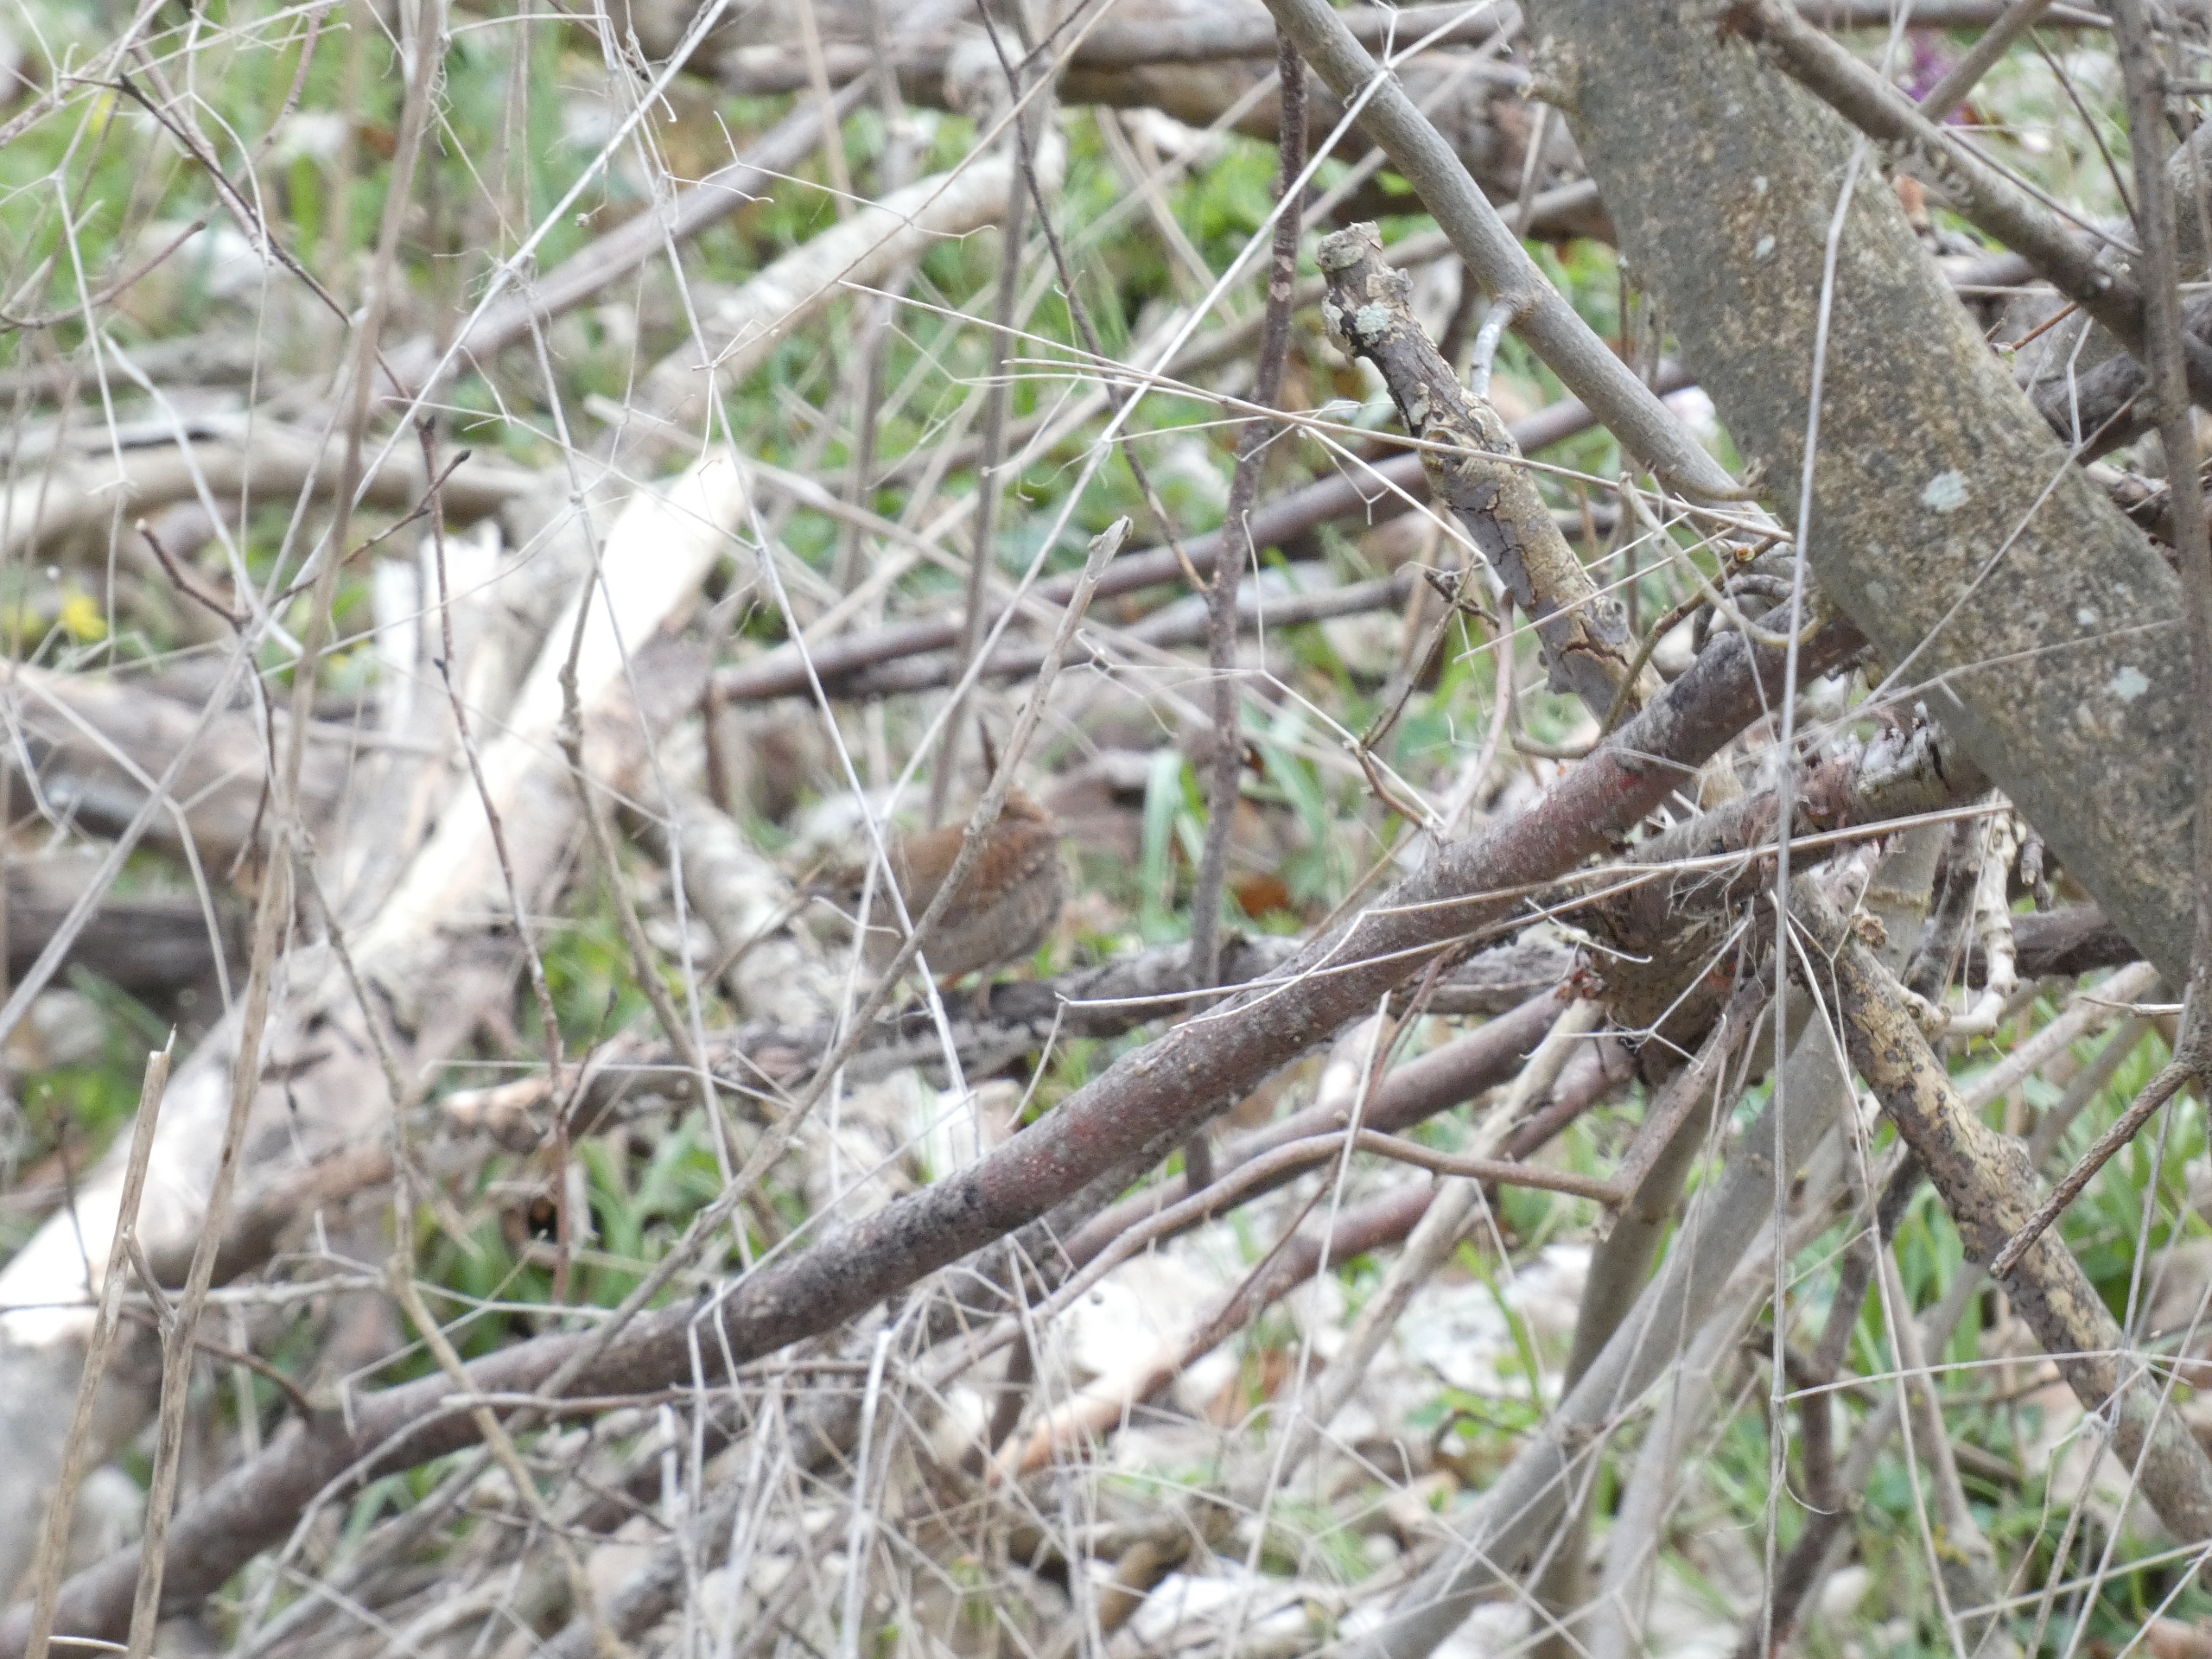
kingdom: Animalia
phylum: Chordata
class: Aves
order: Passeriformes
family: Troglodytidae
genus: Troglodytes
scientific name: Troglodytes troglodytes
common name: Gærdesmutte
